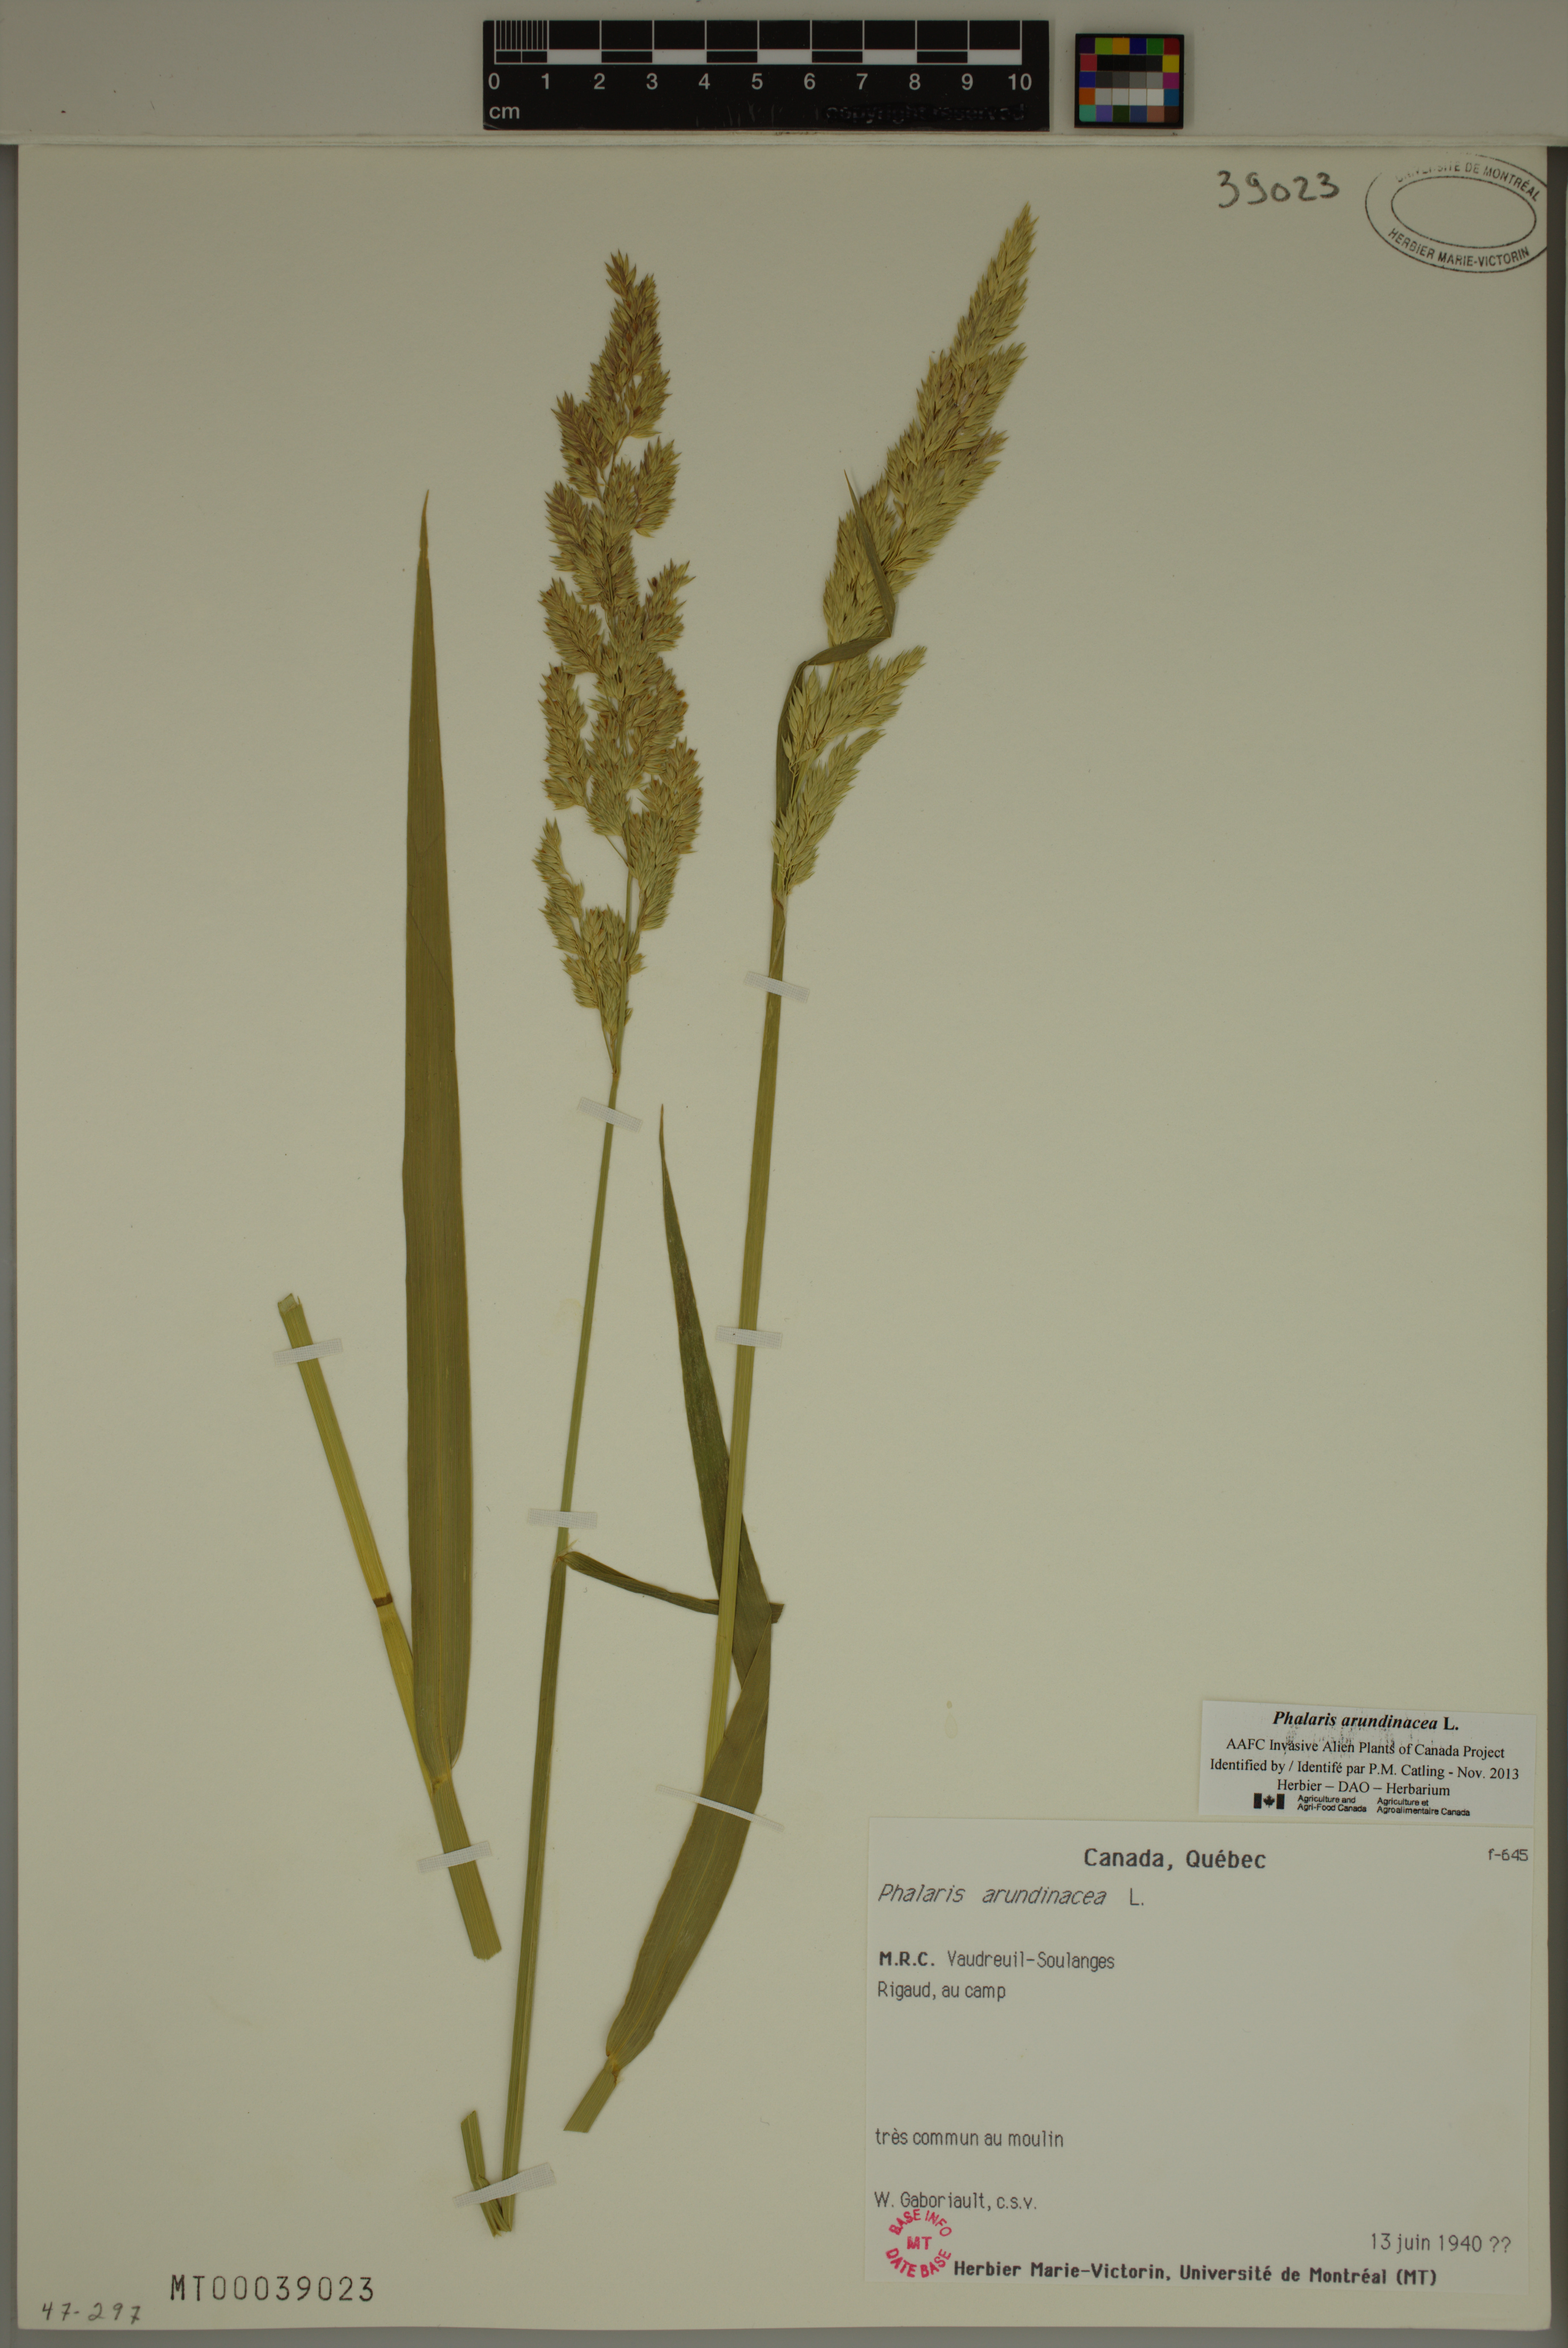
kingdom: Plantae
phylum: Tracheophyta
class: Liliopsida
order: Poales
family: Poaceae
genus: Phalaris
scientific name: Phalaris arundinacea
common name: Reed canary-grass
